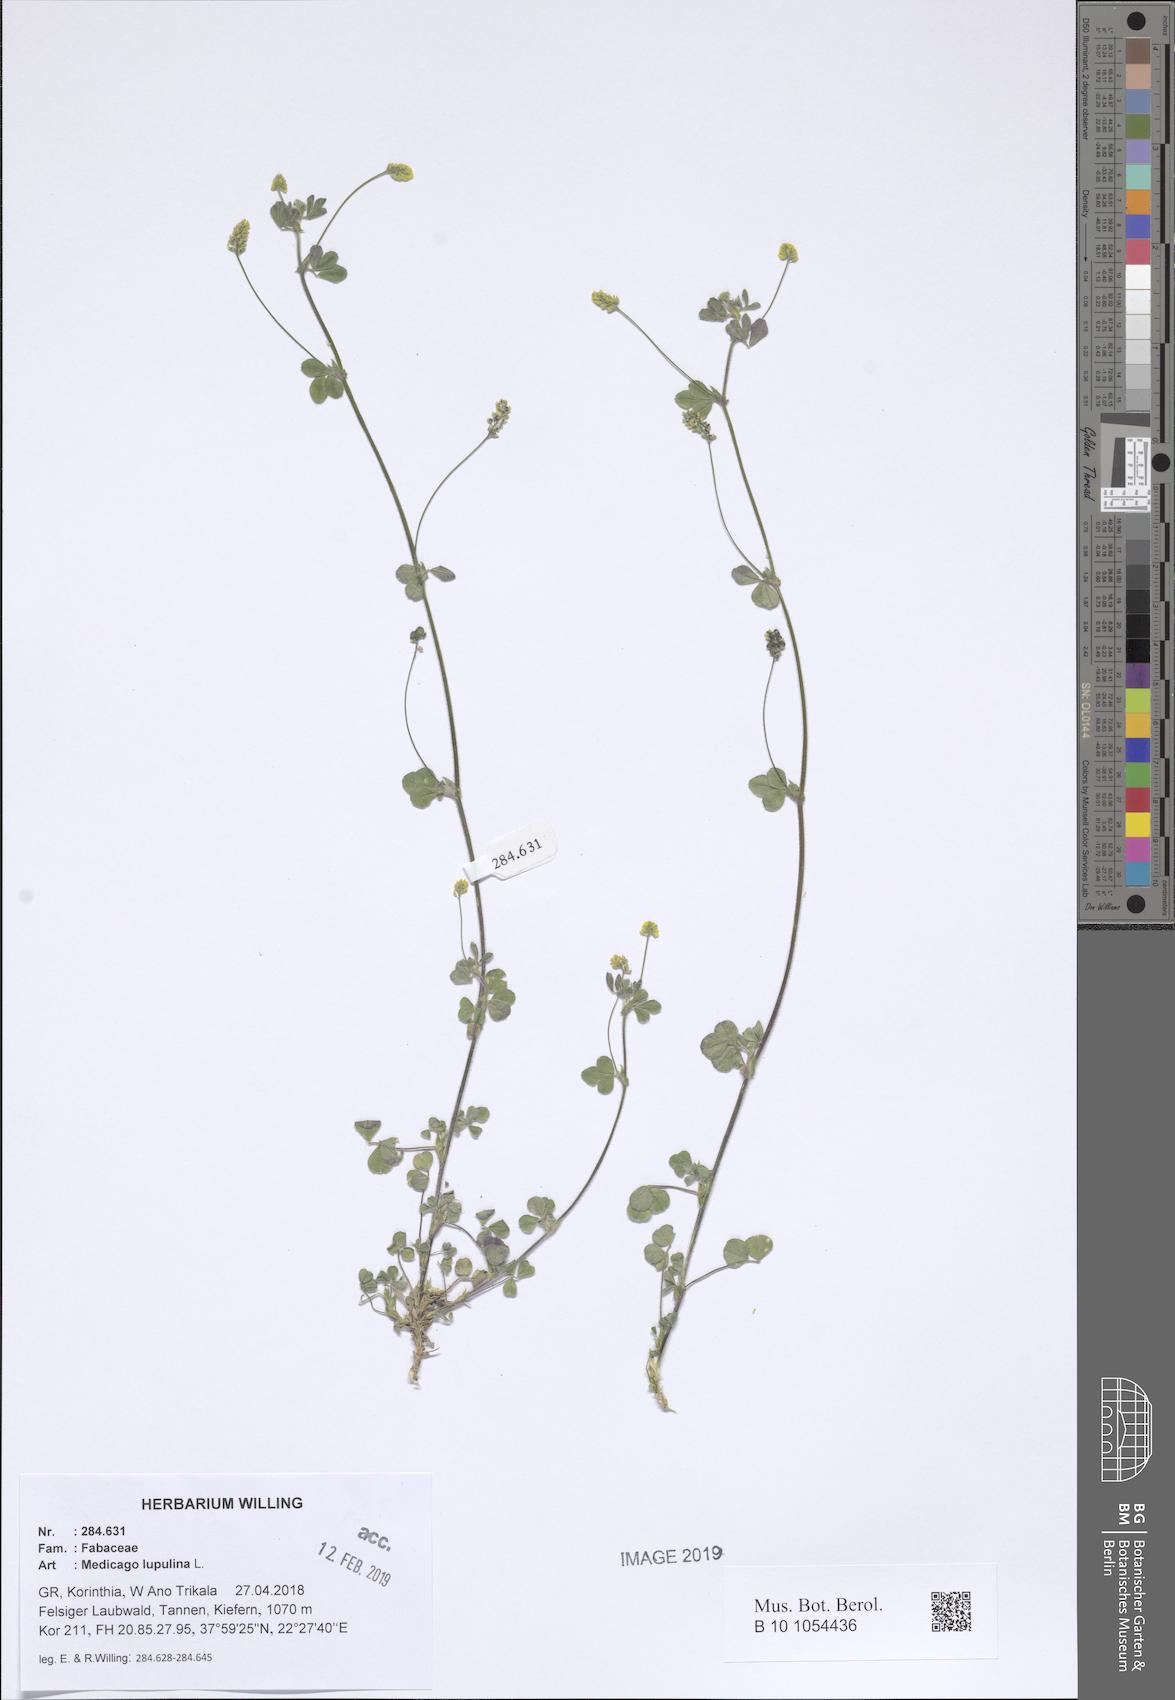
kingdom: Plantae
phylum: Tracheophyta
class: Magnoliopsida
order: Fabales
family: Fabaceae
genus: Medicago
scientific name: Medicago lupulina
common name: Black medick
